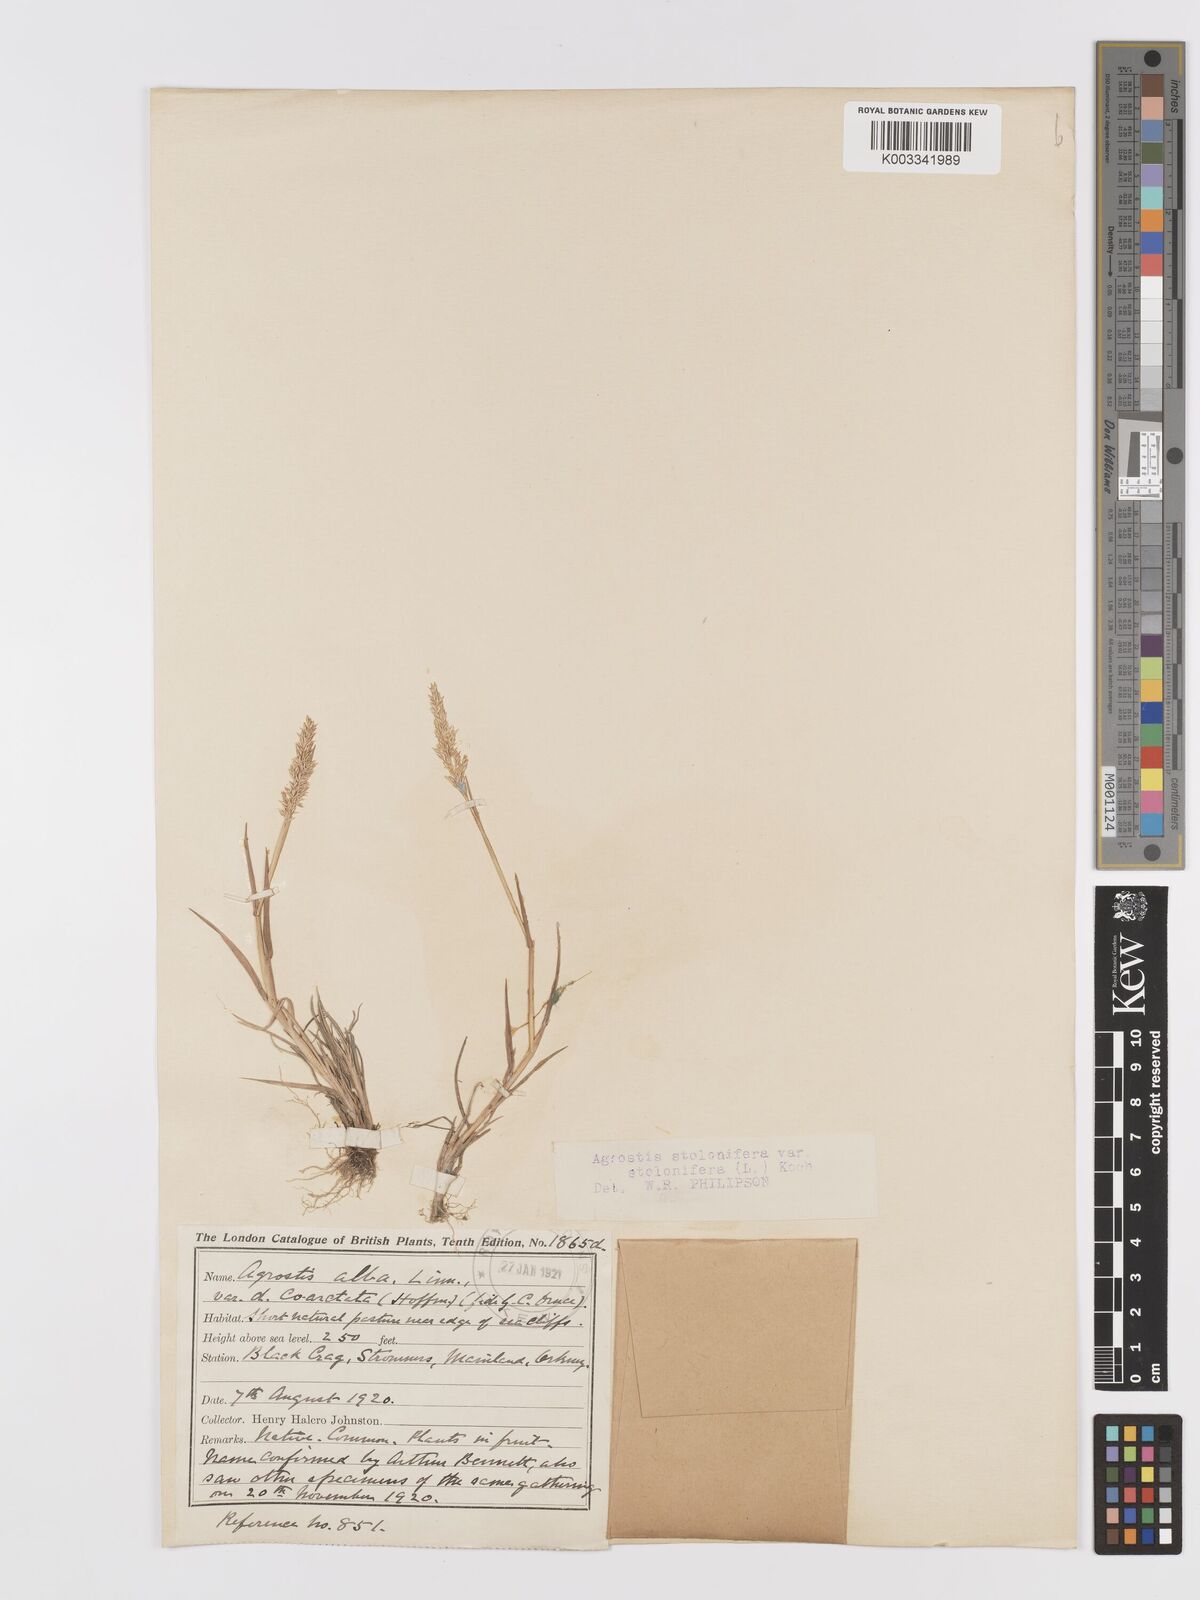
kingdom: Plantae
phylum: Tracheophyta
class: Liliopsida
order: Poales
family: Poaceae
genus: Agrostis
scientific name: Agrostis stolonifera
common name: Creeping bentgrass
